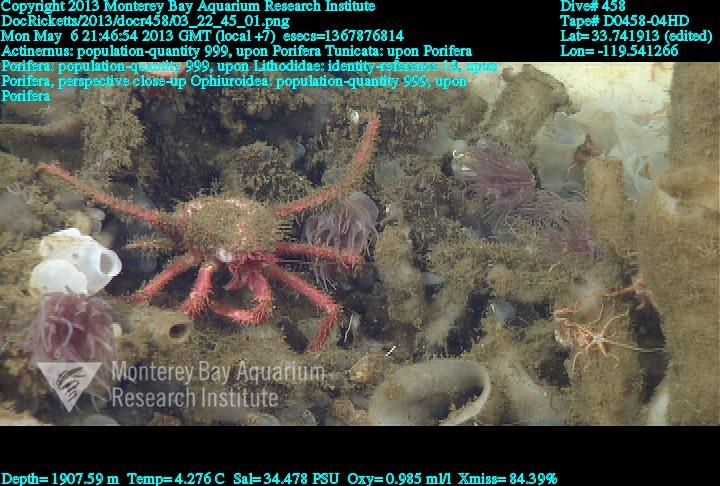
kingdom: Animalia
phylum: Porifera
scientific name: Porifera
